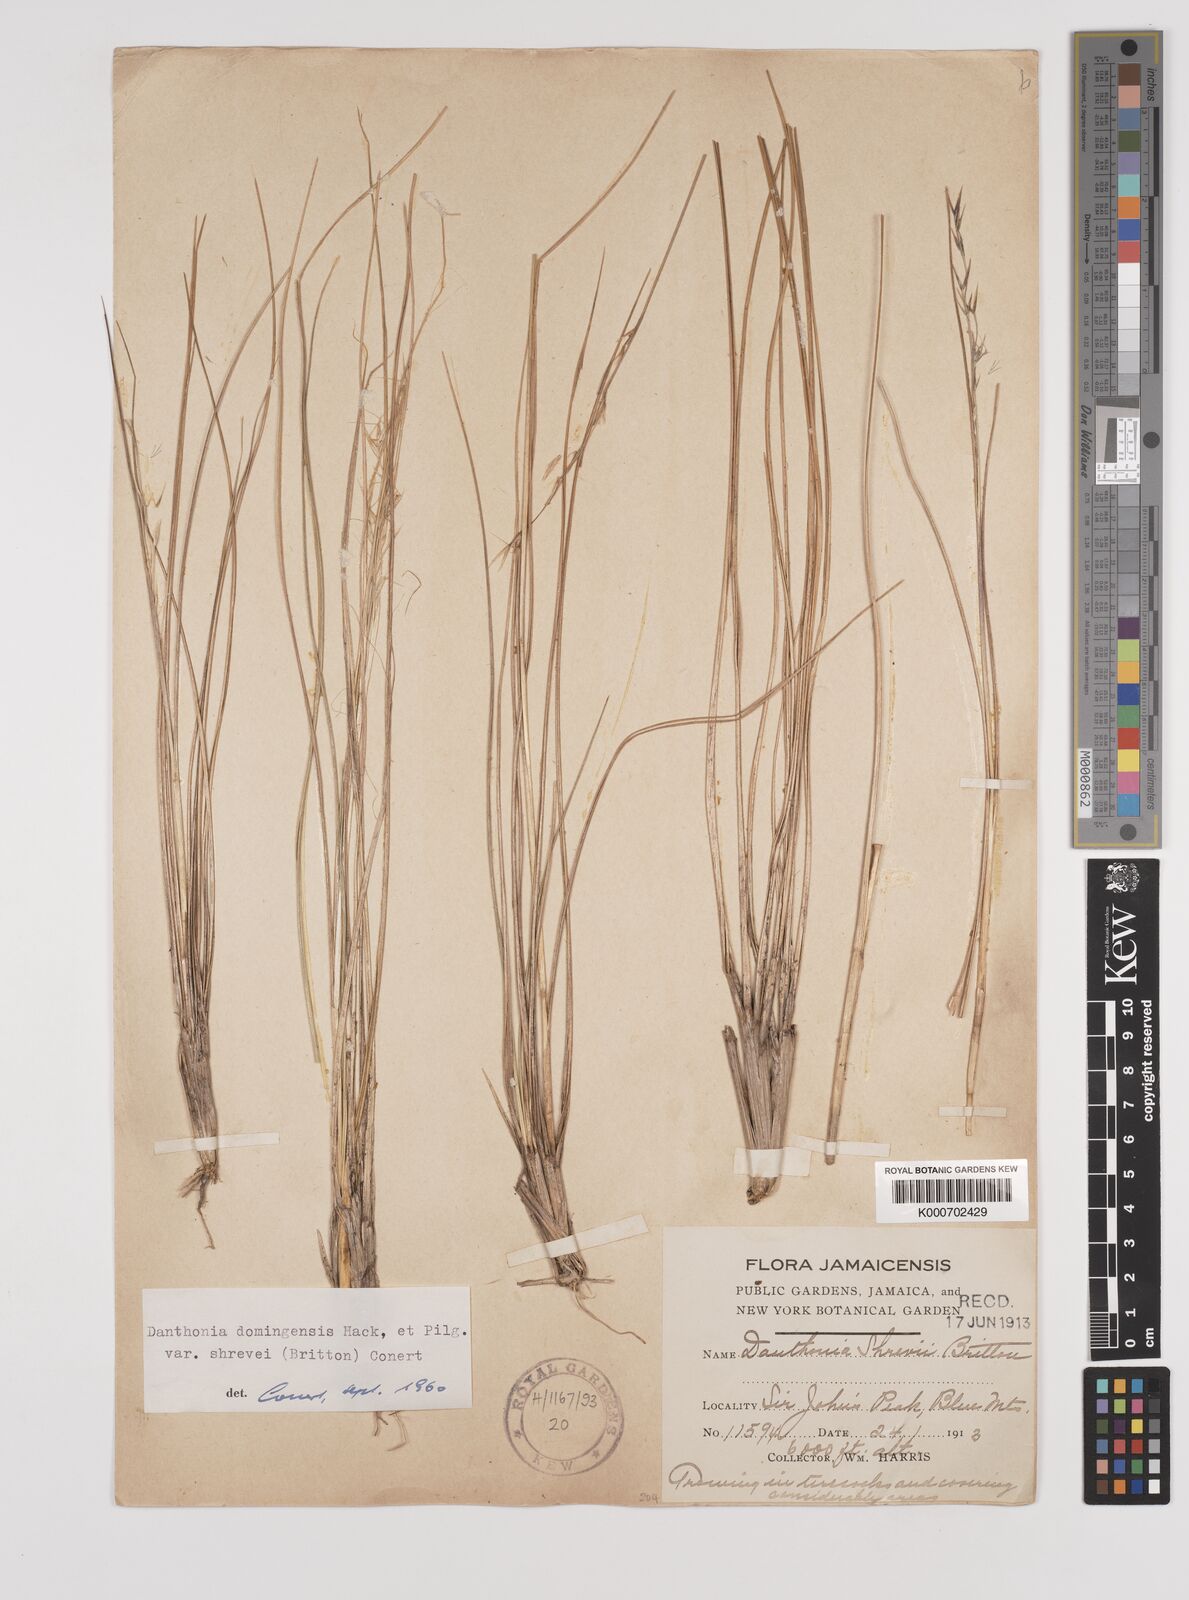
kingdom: Plantae
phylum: Tracheophyta
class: Liliopsida
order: Poales
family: Poaceae
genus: Danthonia
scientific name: Danthonia domingensis
